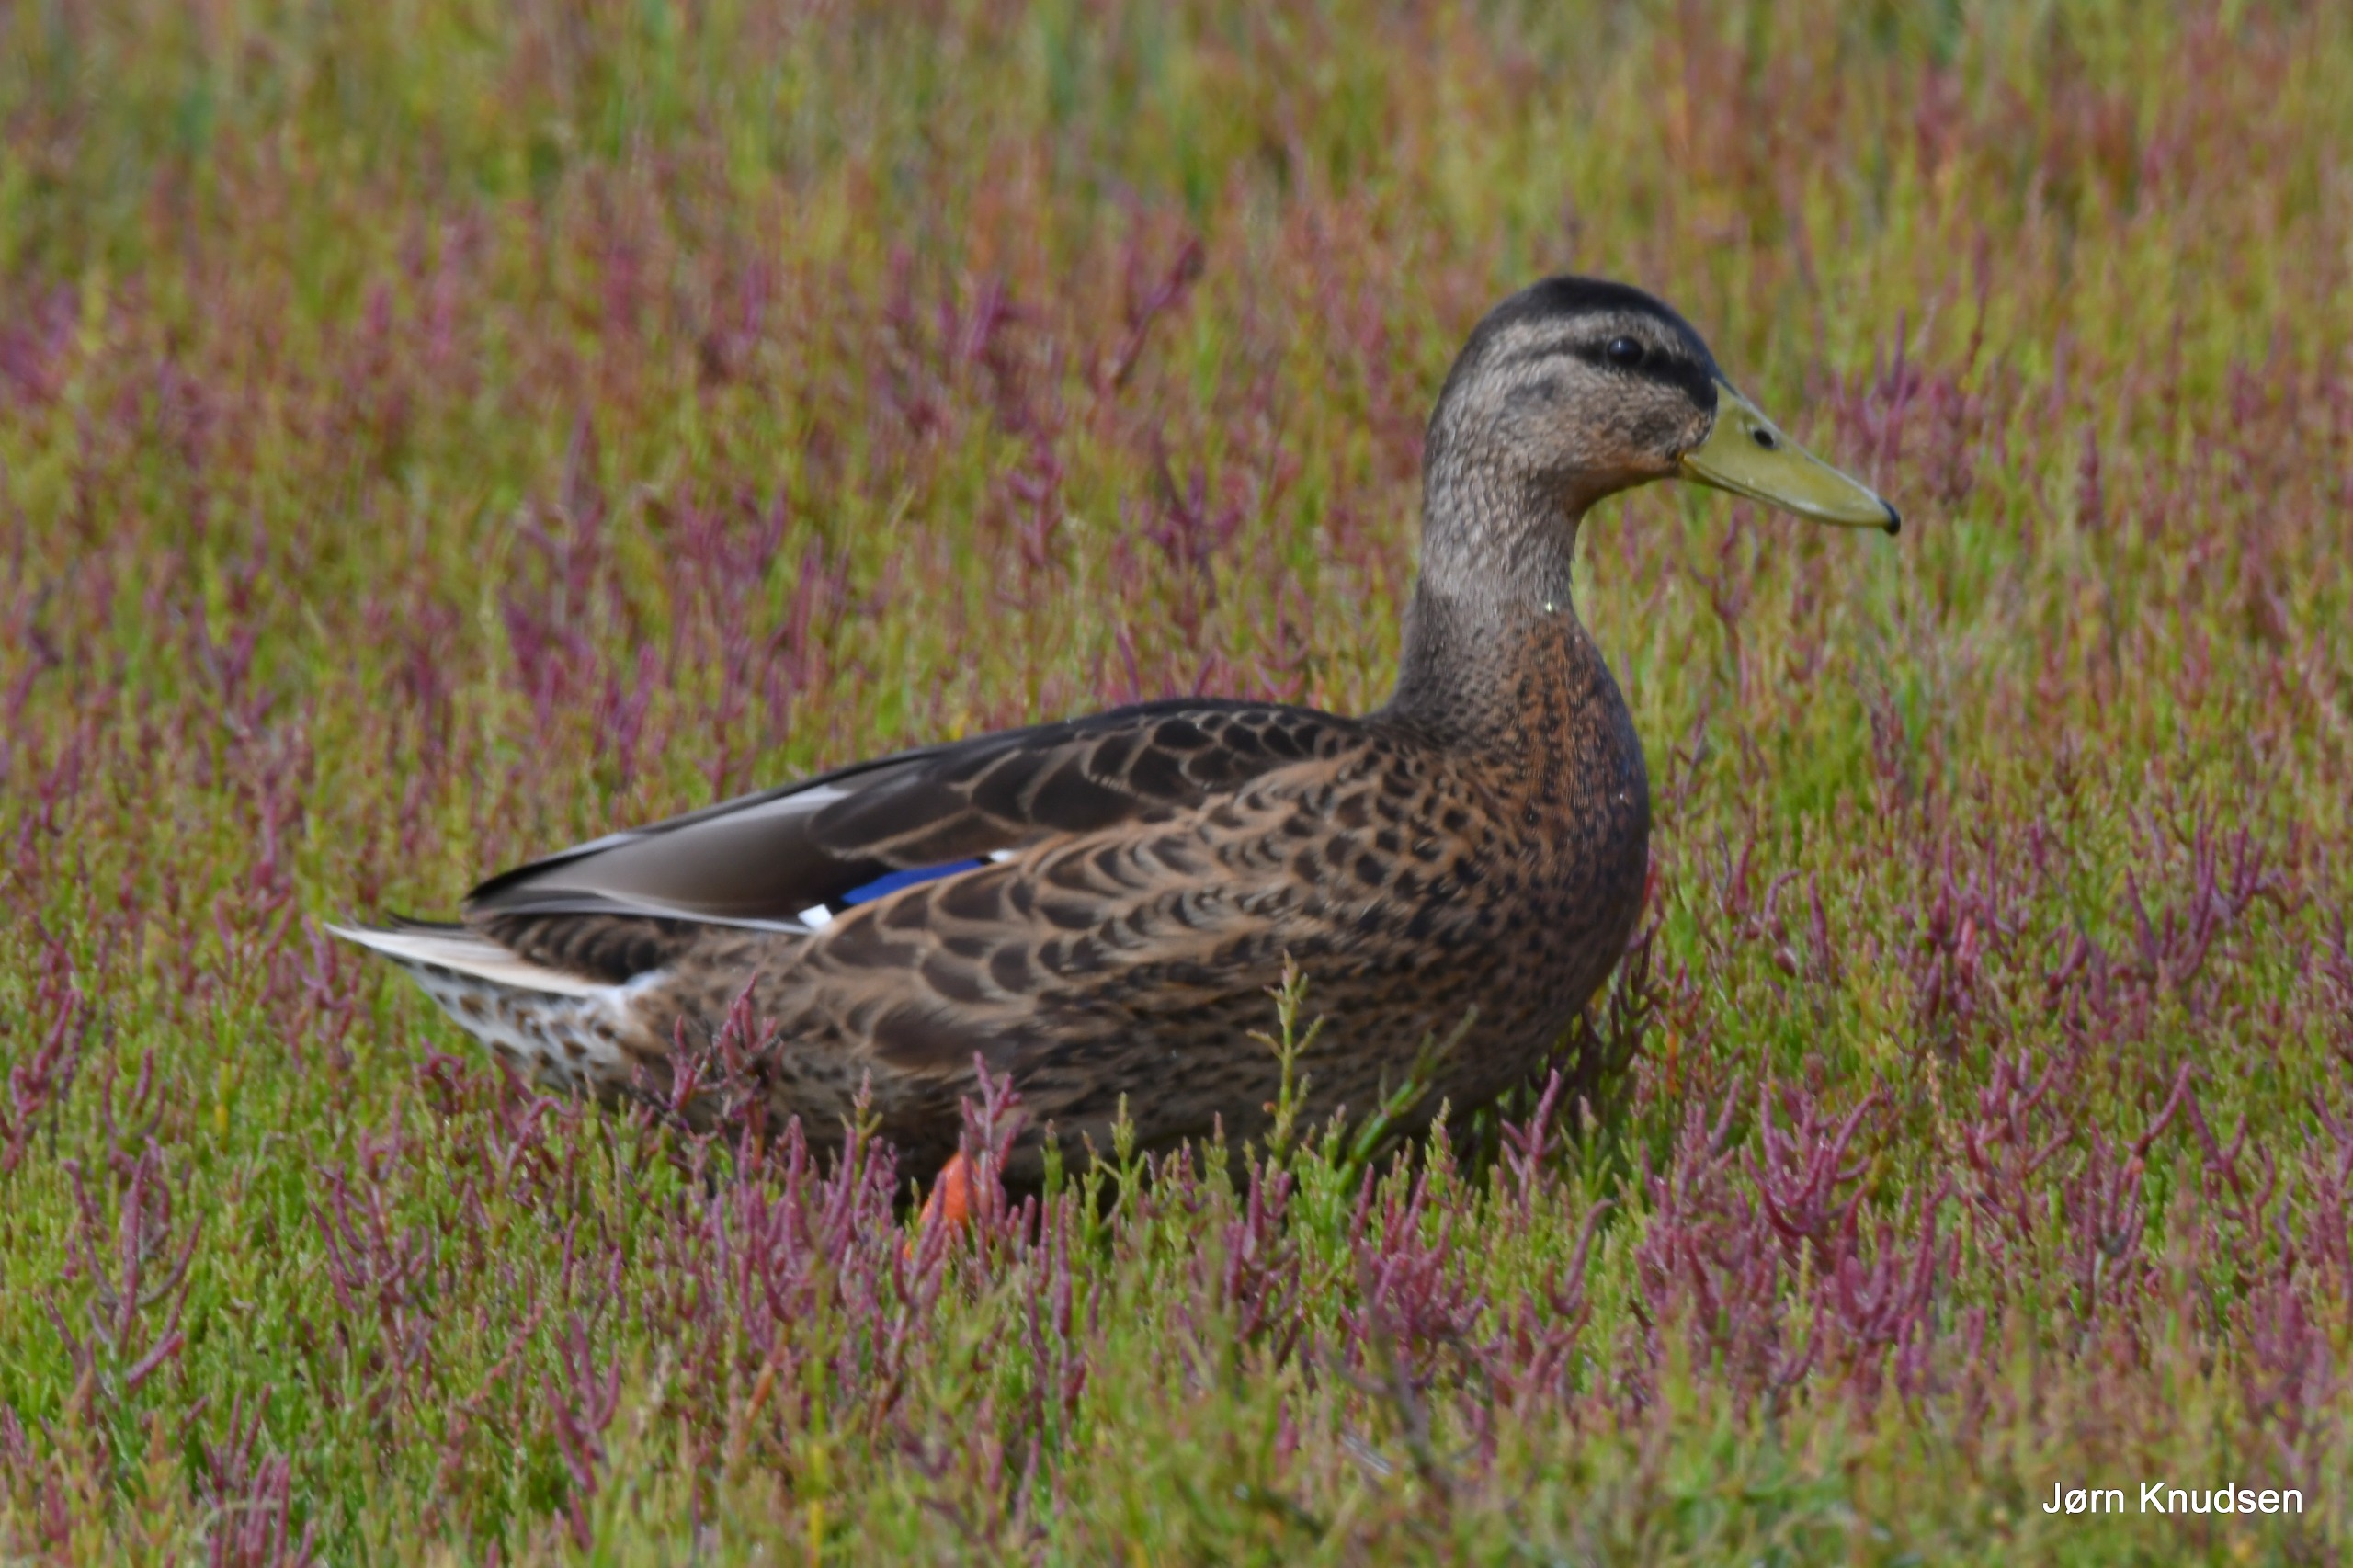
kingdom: Animalia
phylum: Chordata
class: Aves
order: Anseriformes
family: Anatidae
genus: Anas
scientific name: Anas platyrhynchos
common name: Gråand
